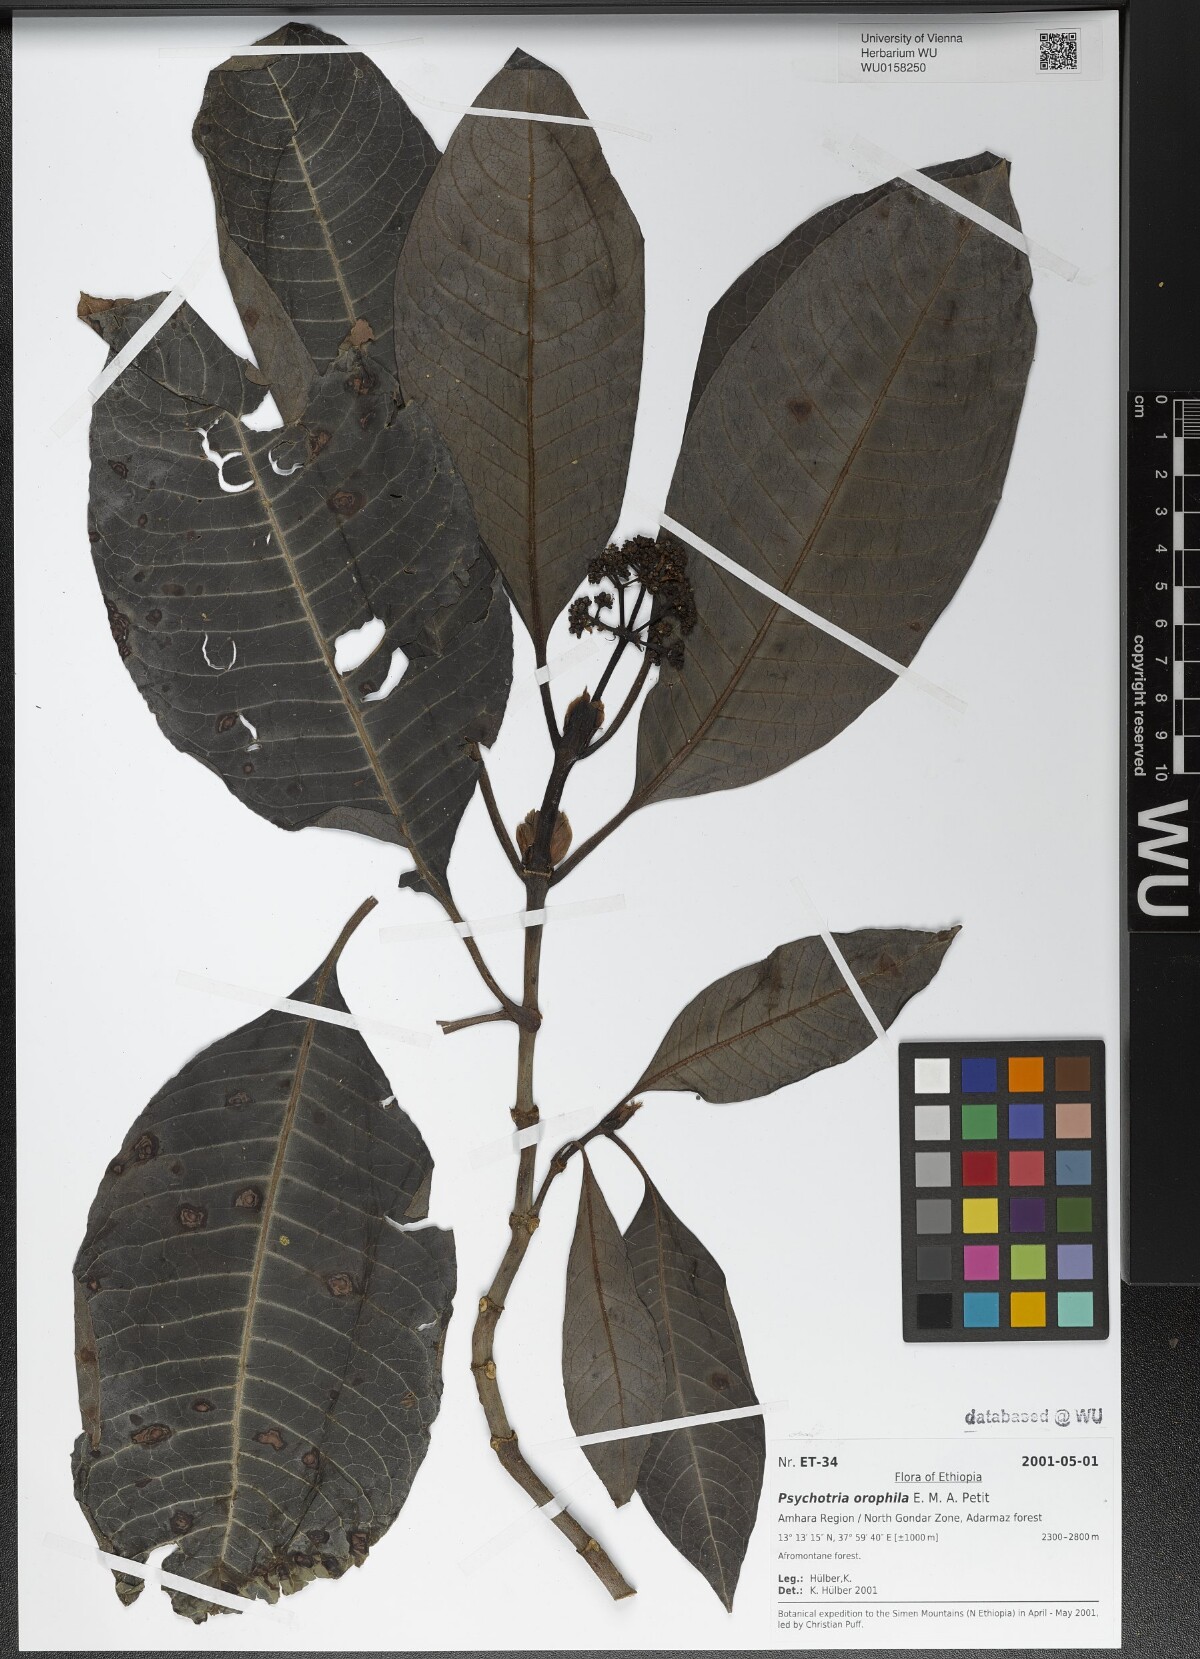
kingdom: Plantae
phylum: Tracheophyta
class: Magnoliopsida
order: Gentianales
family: Rubiaceae
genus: Psychotria
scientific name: Psychotria orophila
